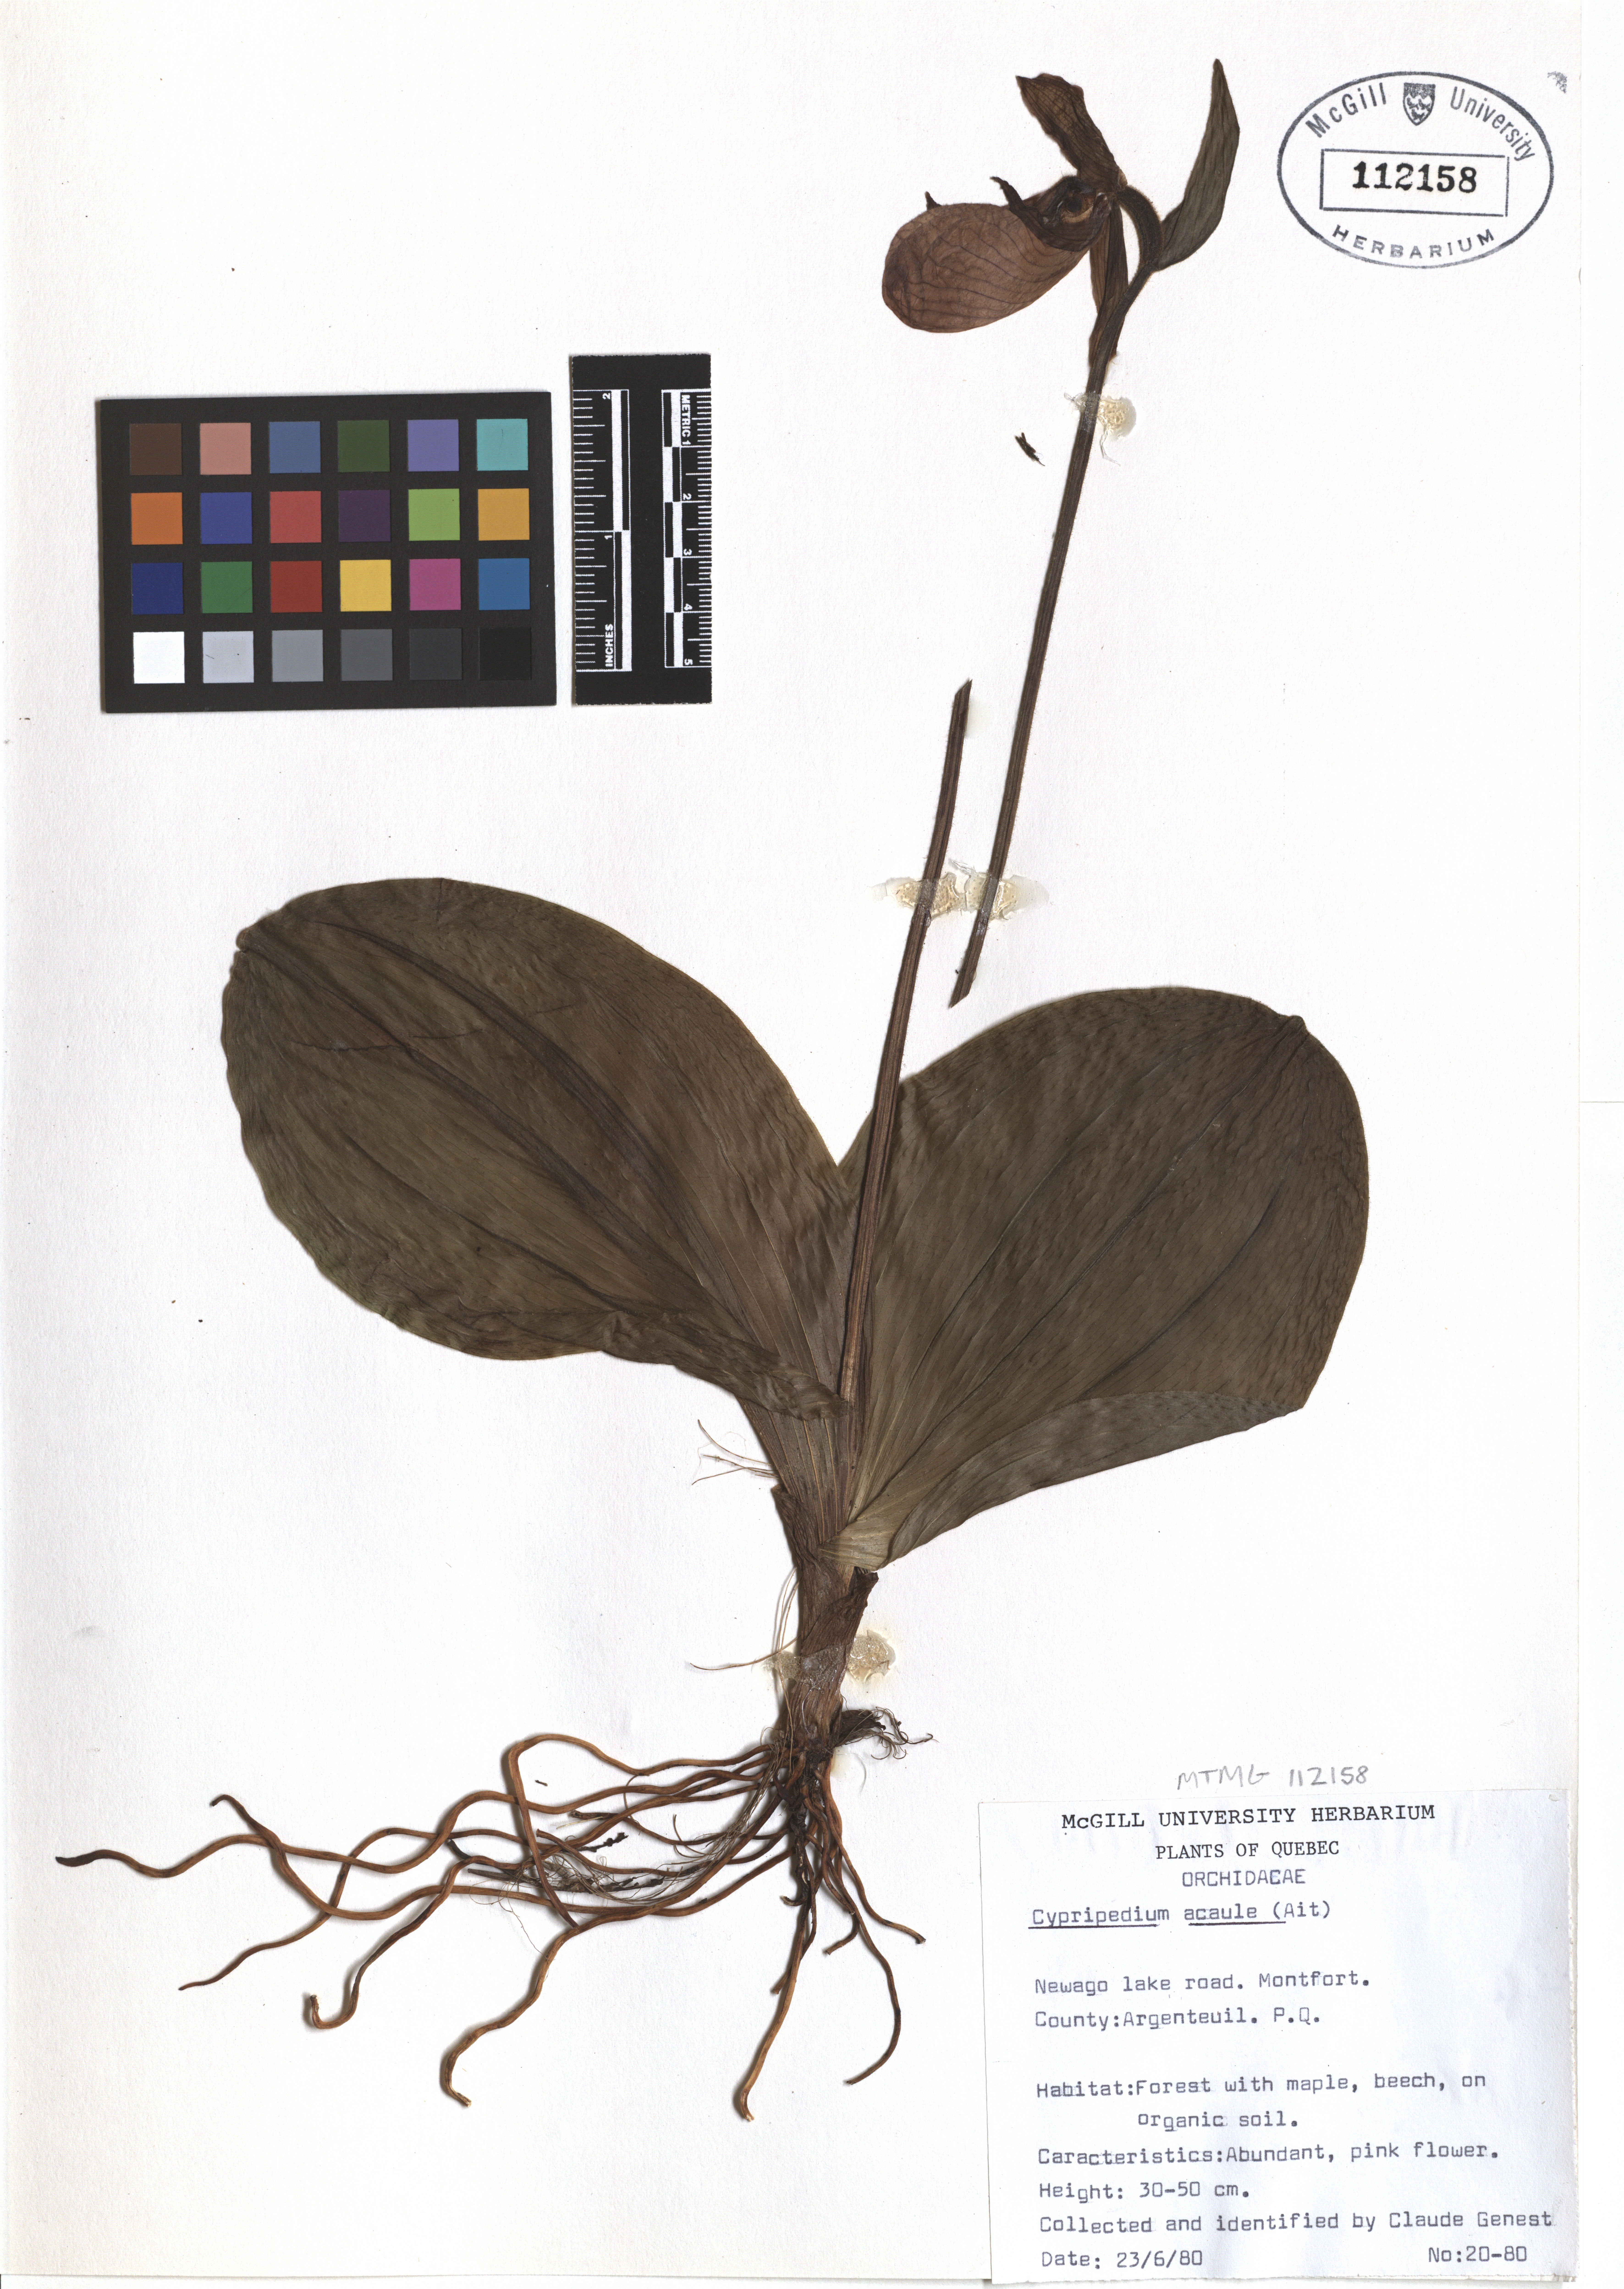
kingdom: Plantae
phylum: Tracheophyta
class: Liliopsida
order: Asparagales
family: Orchidaceae
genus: Cypripedium
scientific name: Cypripedium acaule
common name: Pink lady's-slipper
